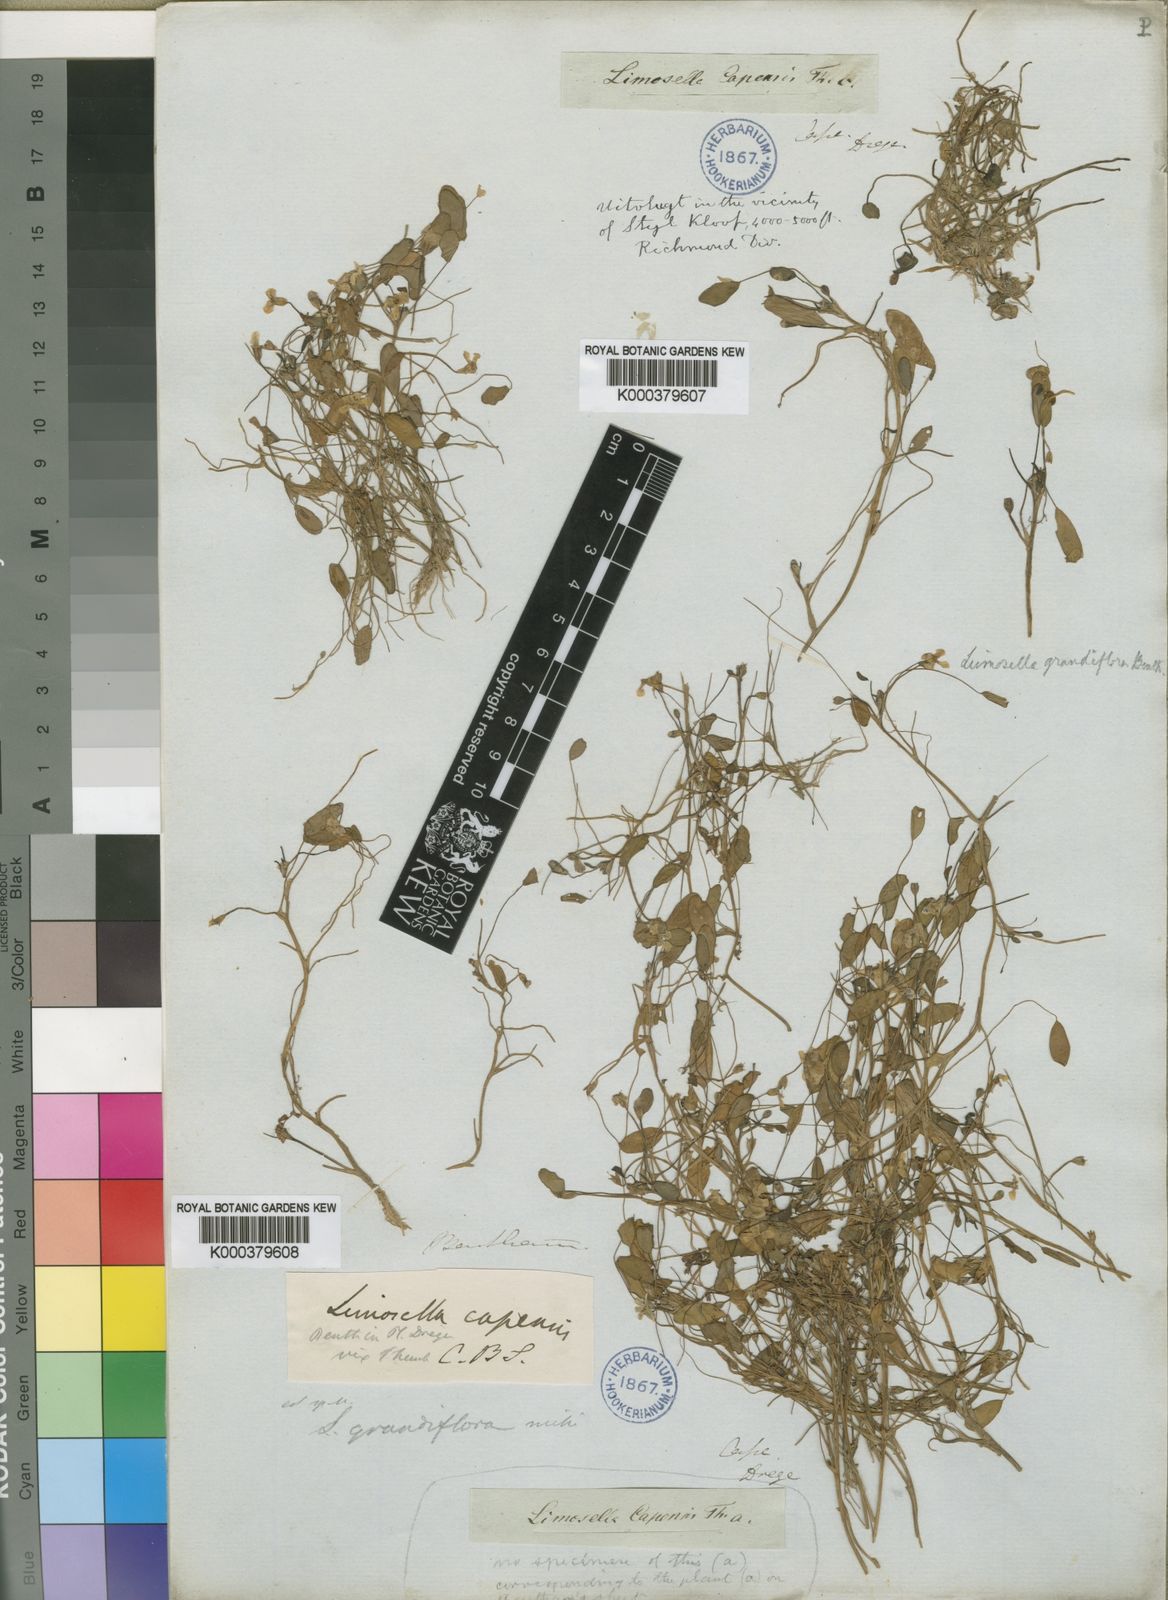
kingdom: Plantae
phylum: Tracheophyta
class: Magnoliopsida
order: Lamiales
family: Scrophulariaceae
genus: Limosella
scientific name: Limosella grandiflora
